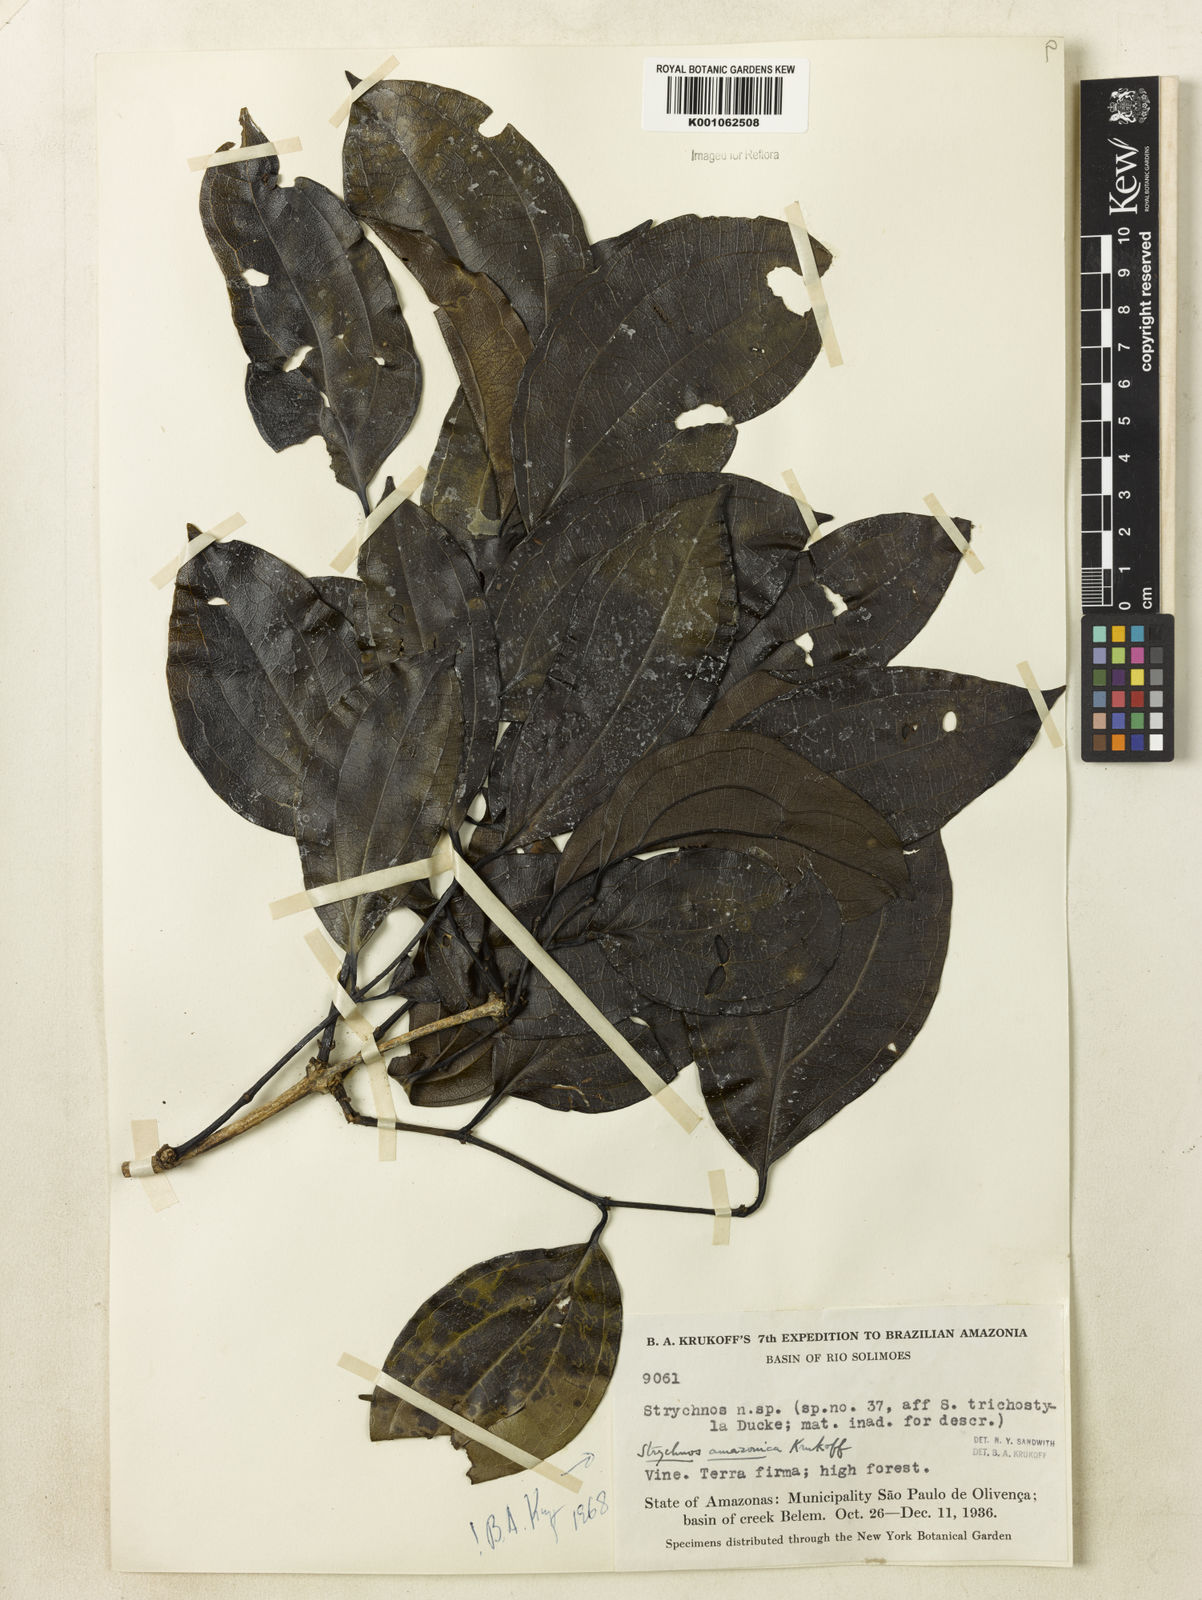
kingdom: Plantae
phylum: Tracheophyta
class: Magnoliopsida
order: Gentianales
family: Loganiaceae
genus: Strychnos
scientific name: Strychnos amazonica
